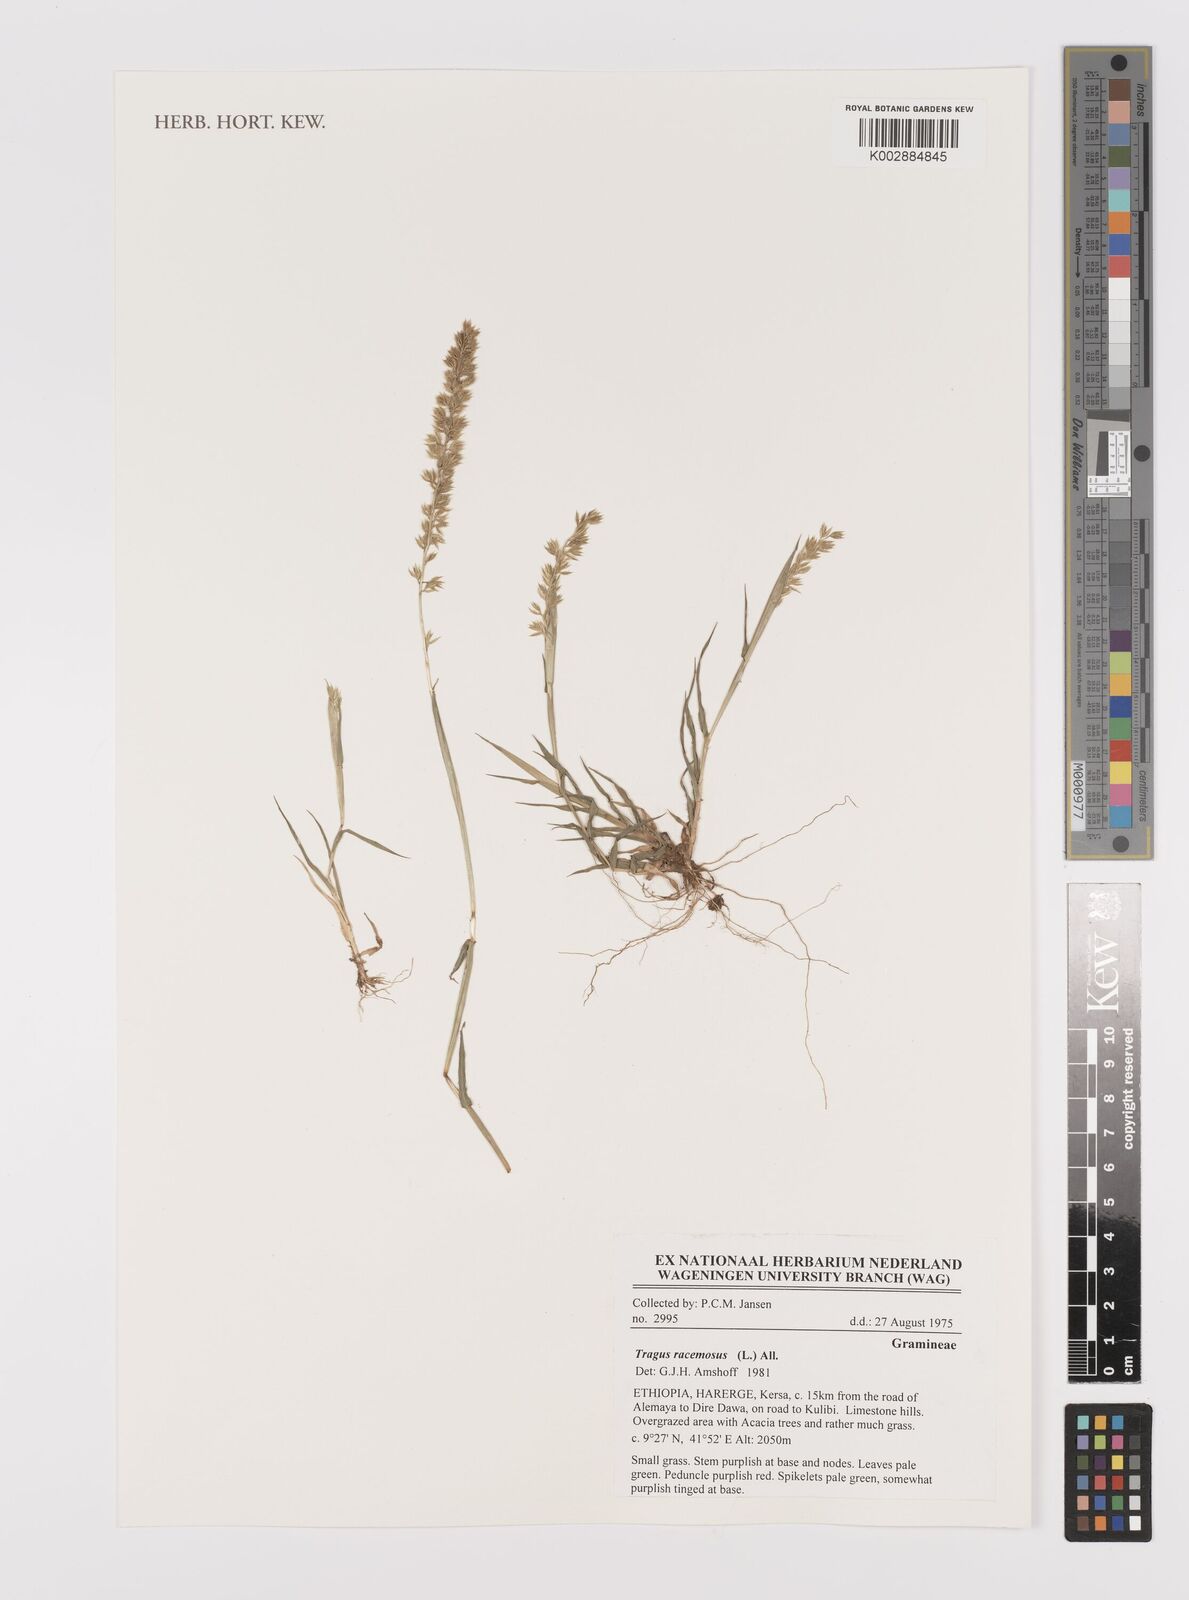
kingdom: Plantae
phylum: Tracheophyta
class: Liliopsida
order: Poales
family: Poaceae
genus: Tragus
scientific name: Tragus racemosus
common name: European bur-grass
